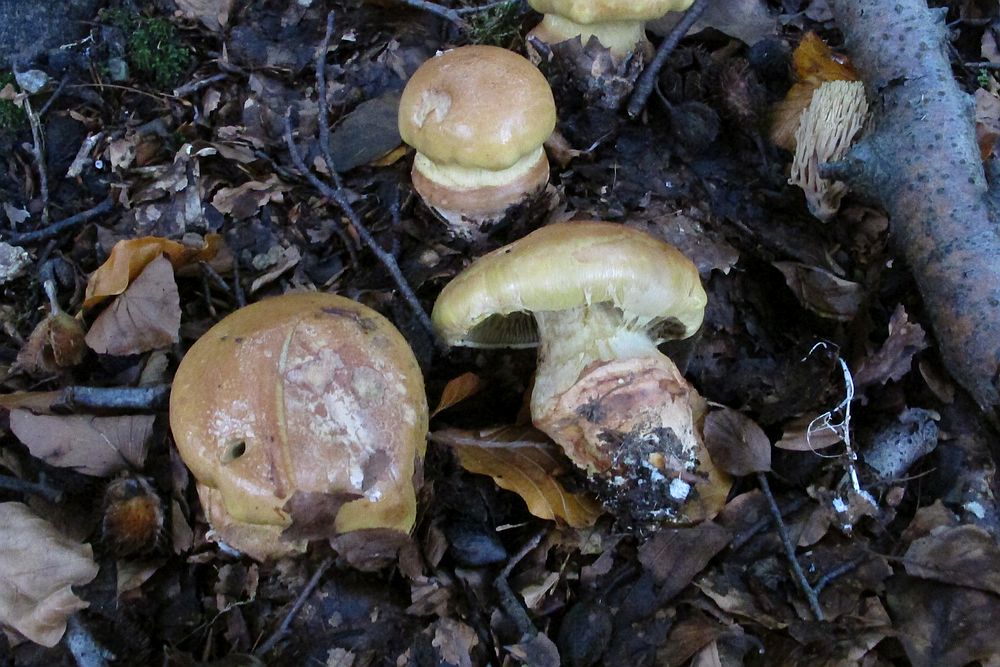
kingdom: Fungi
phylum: Basidiomycota
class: Agaricomycetes
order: Agaricales
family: Cortinariaceae
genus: Cortinarius
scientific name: Cortinarius bergeronii
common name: prægtig slørhat
